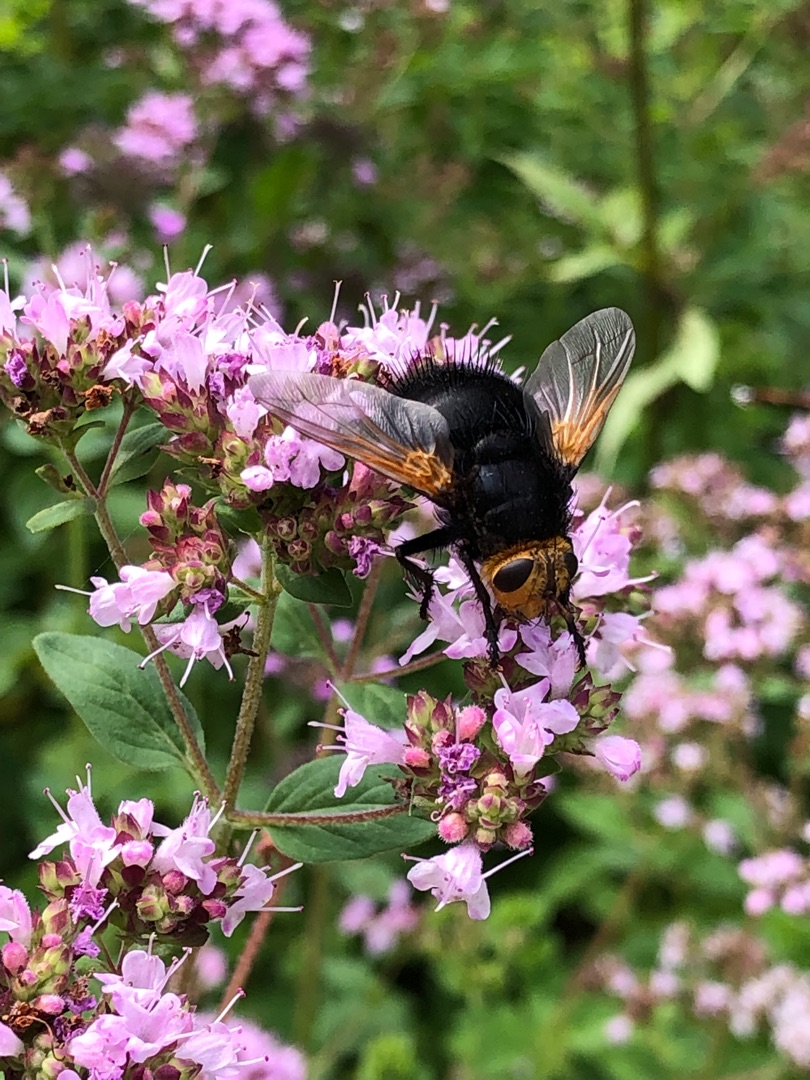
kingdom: Animalia
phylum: Arthropoda
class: Insecta
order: Diptera
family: Tachinidae
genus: Tachina
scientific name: Tachina grossa
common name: Kæmpefluen Harald
